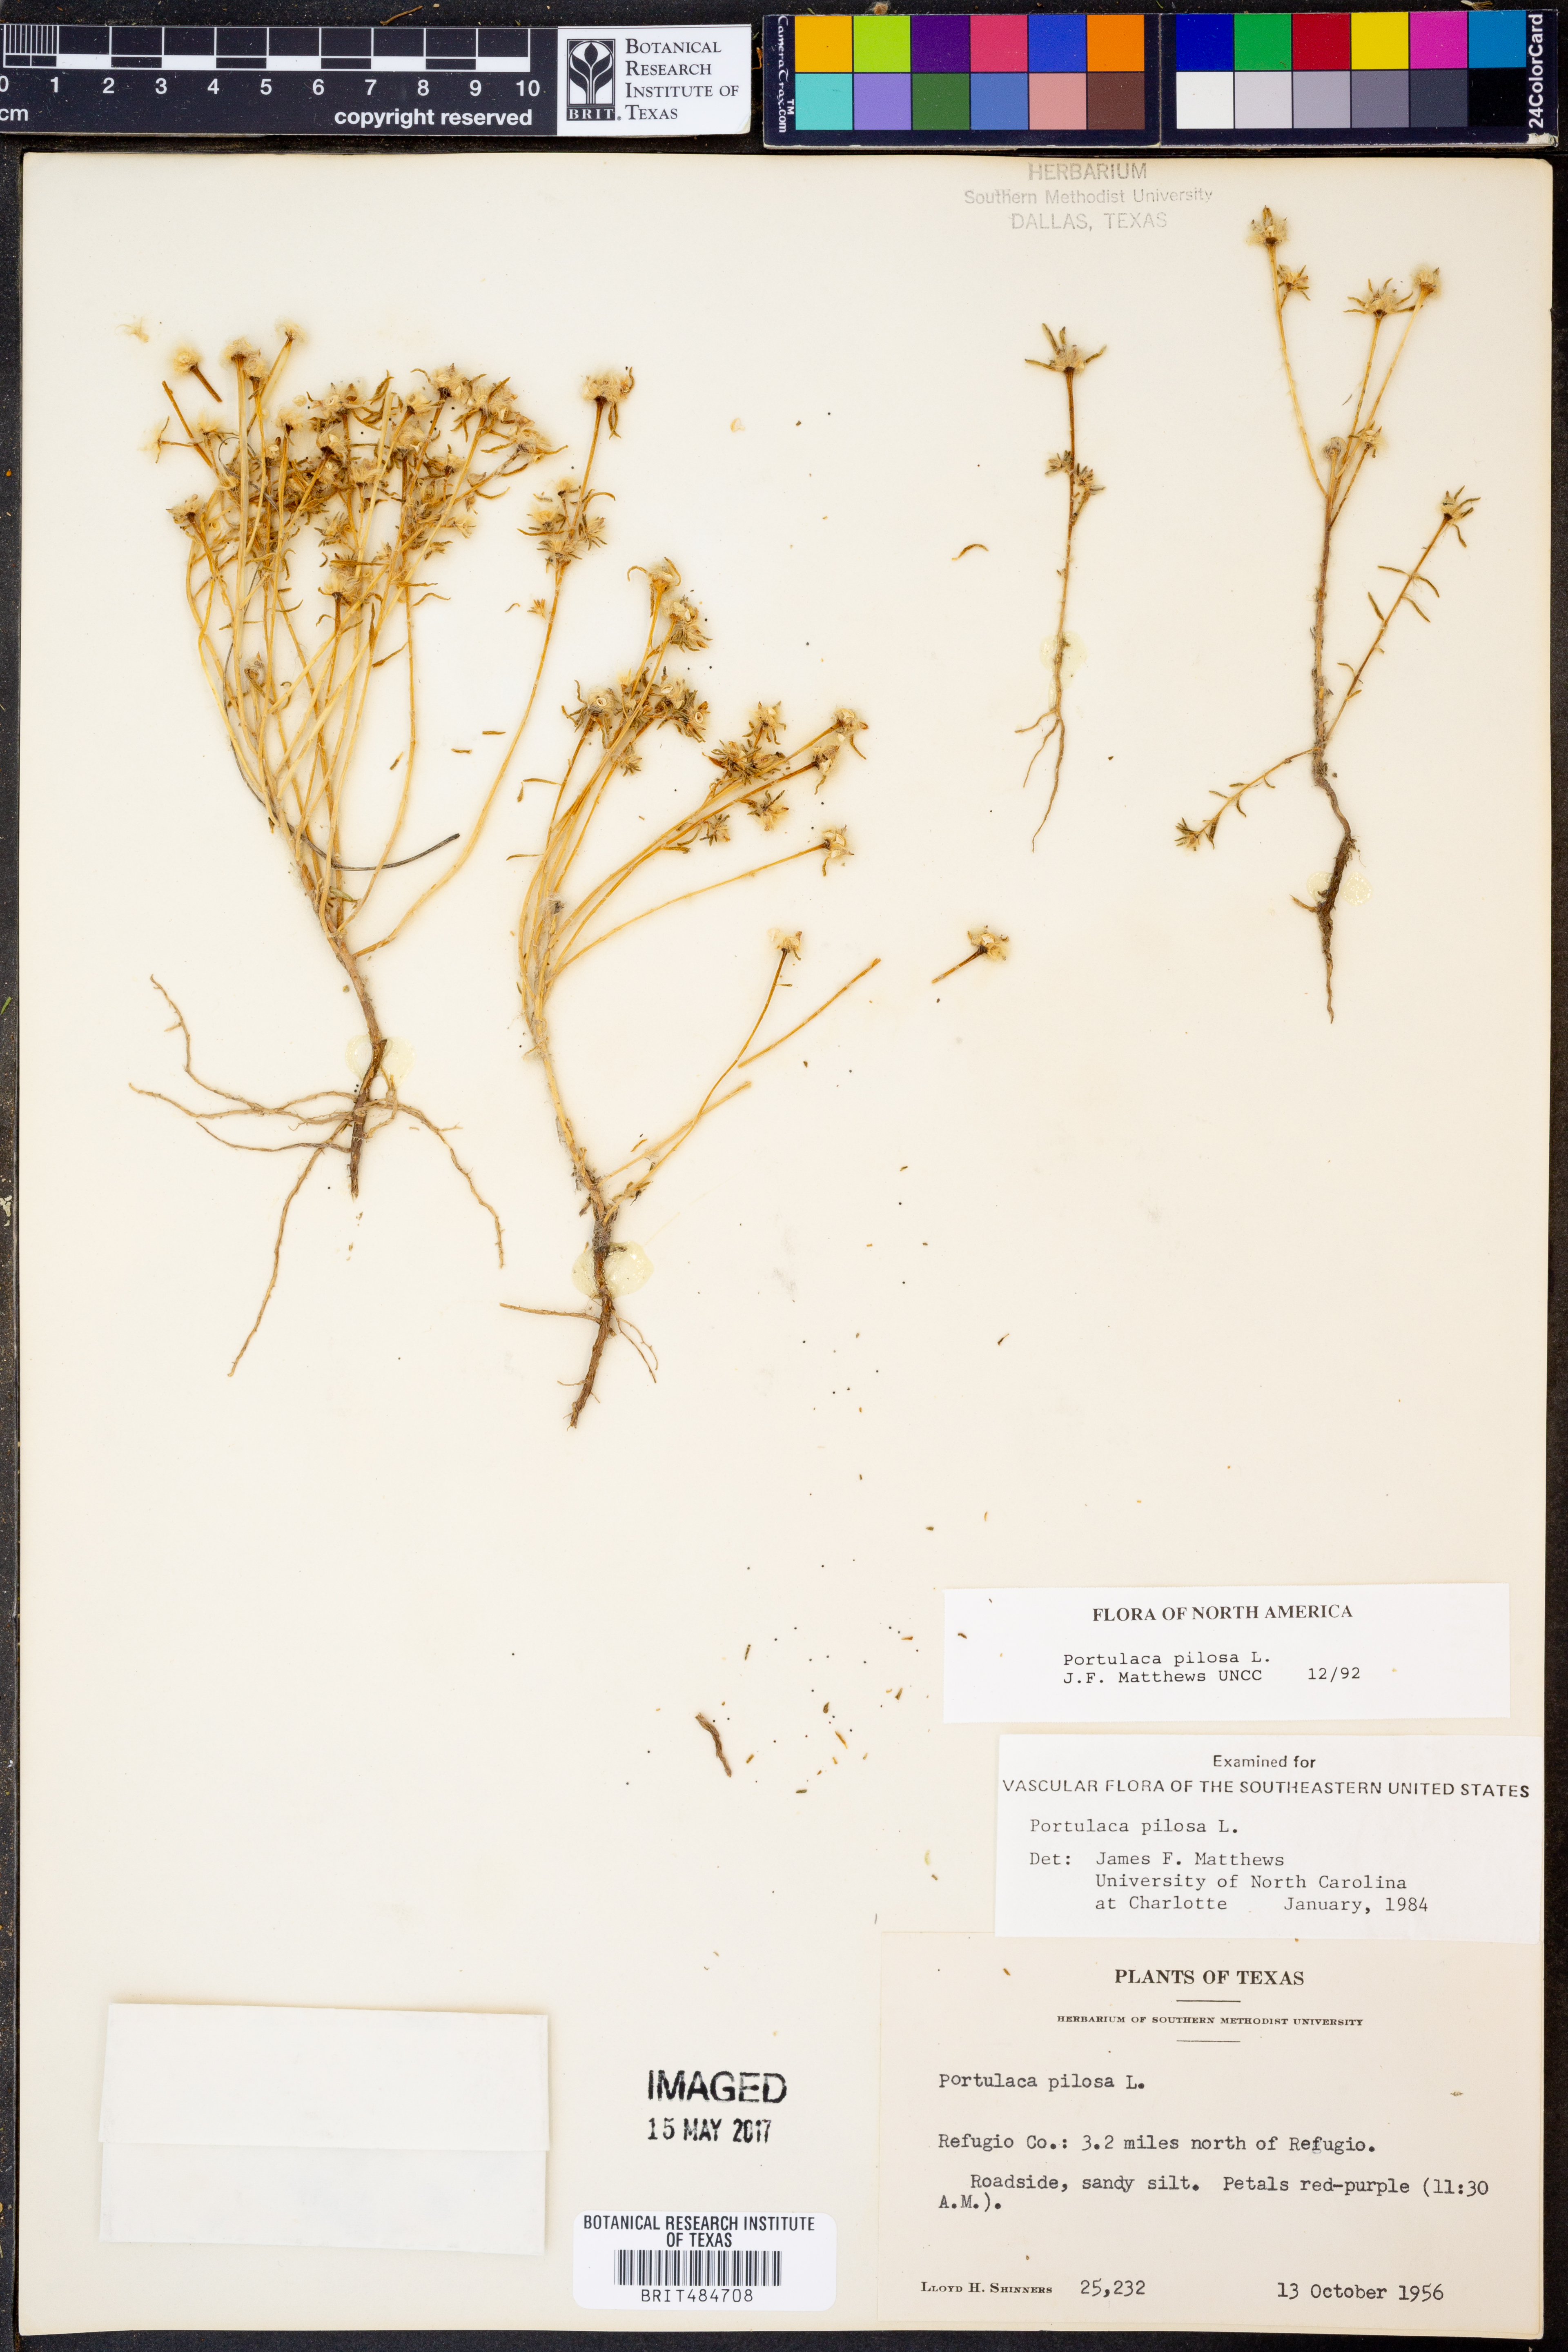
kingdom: Plantae
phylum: Tracheophyta
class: Magnoliopsida
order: Caryophyllales
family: Portulacaceae
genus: Portulaca
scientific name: Portulaca pilosa
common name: Kiss me quick
